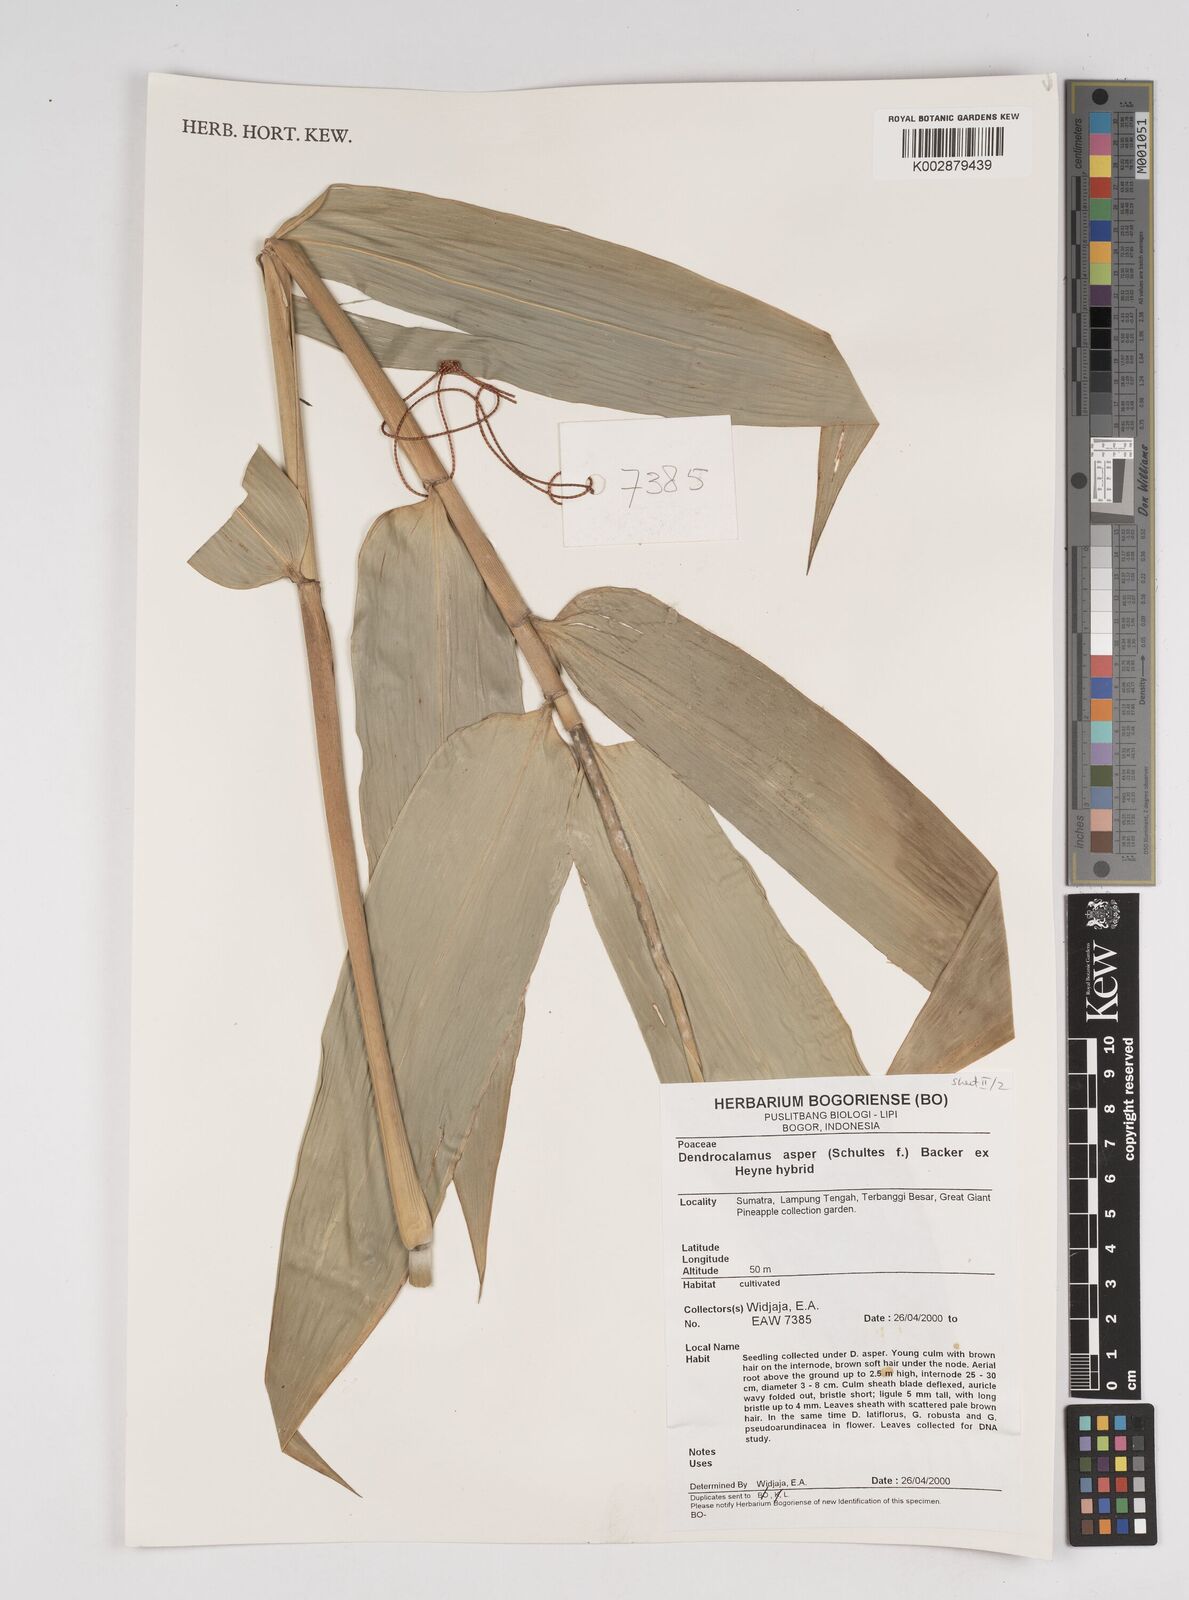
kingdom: Plantae
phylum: Tracheophyta
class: Liliopsida
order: Poales
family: Poaceae
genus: Dendrocalamus
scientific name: Dendrocalamus asper
